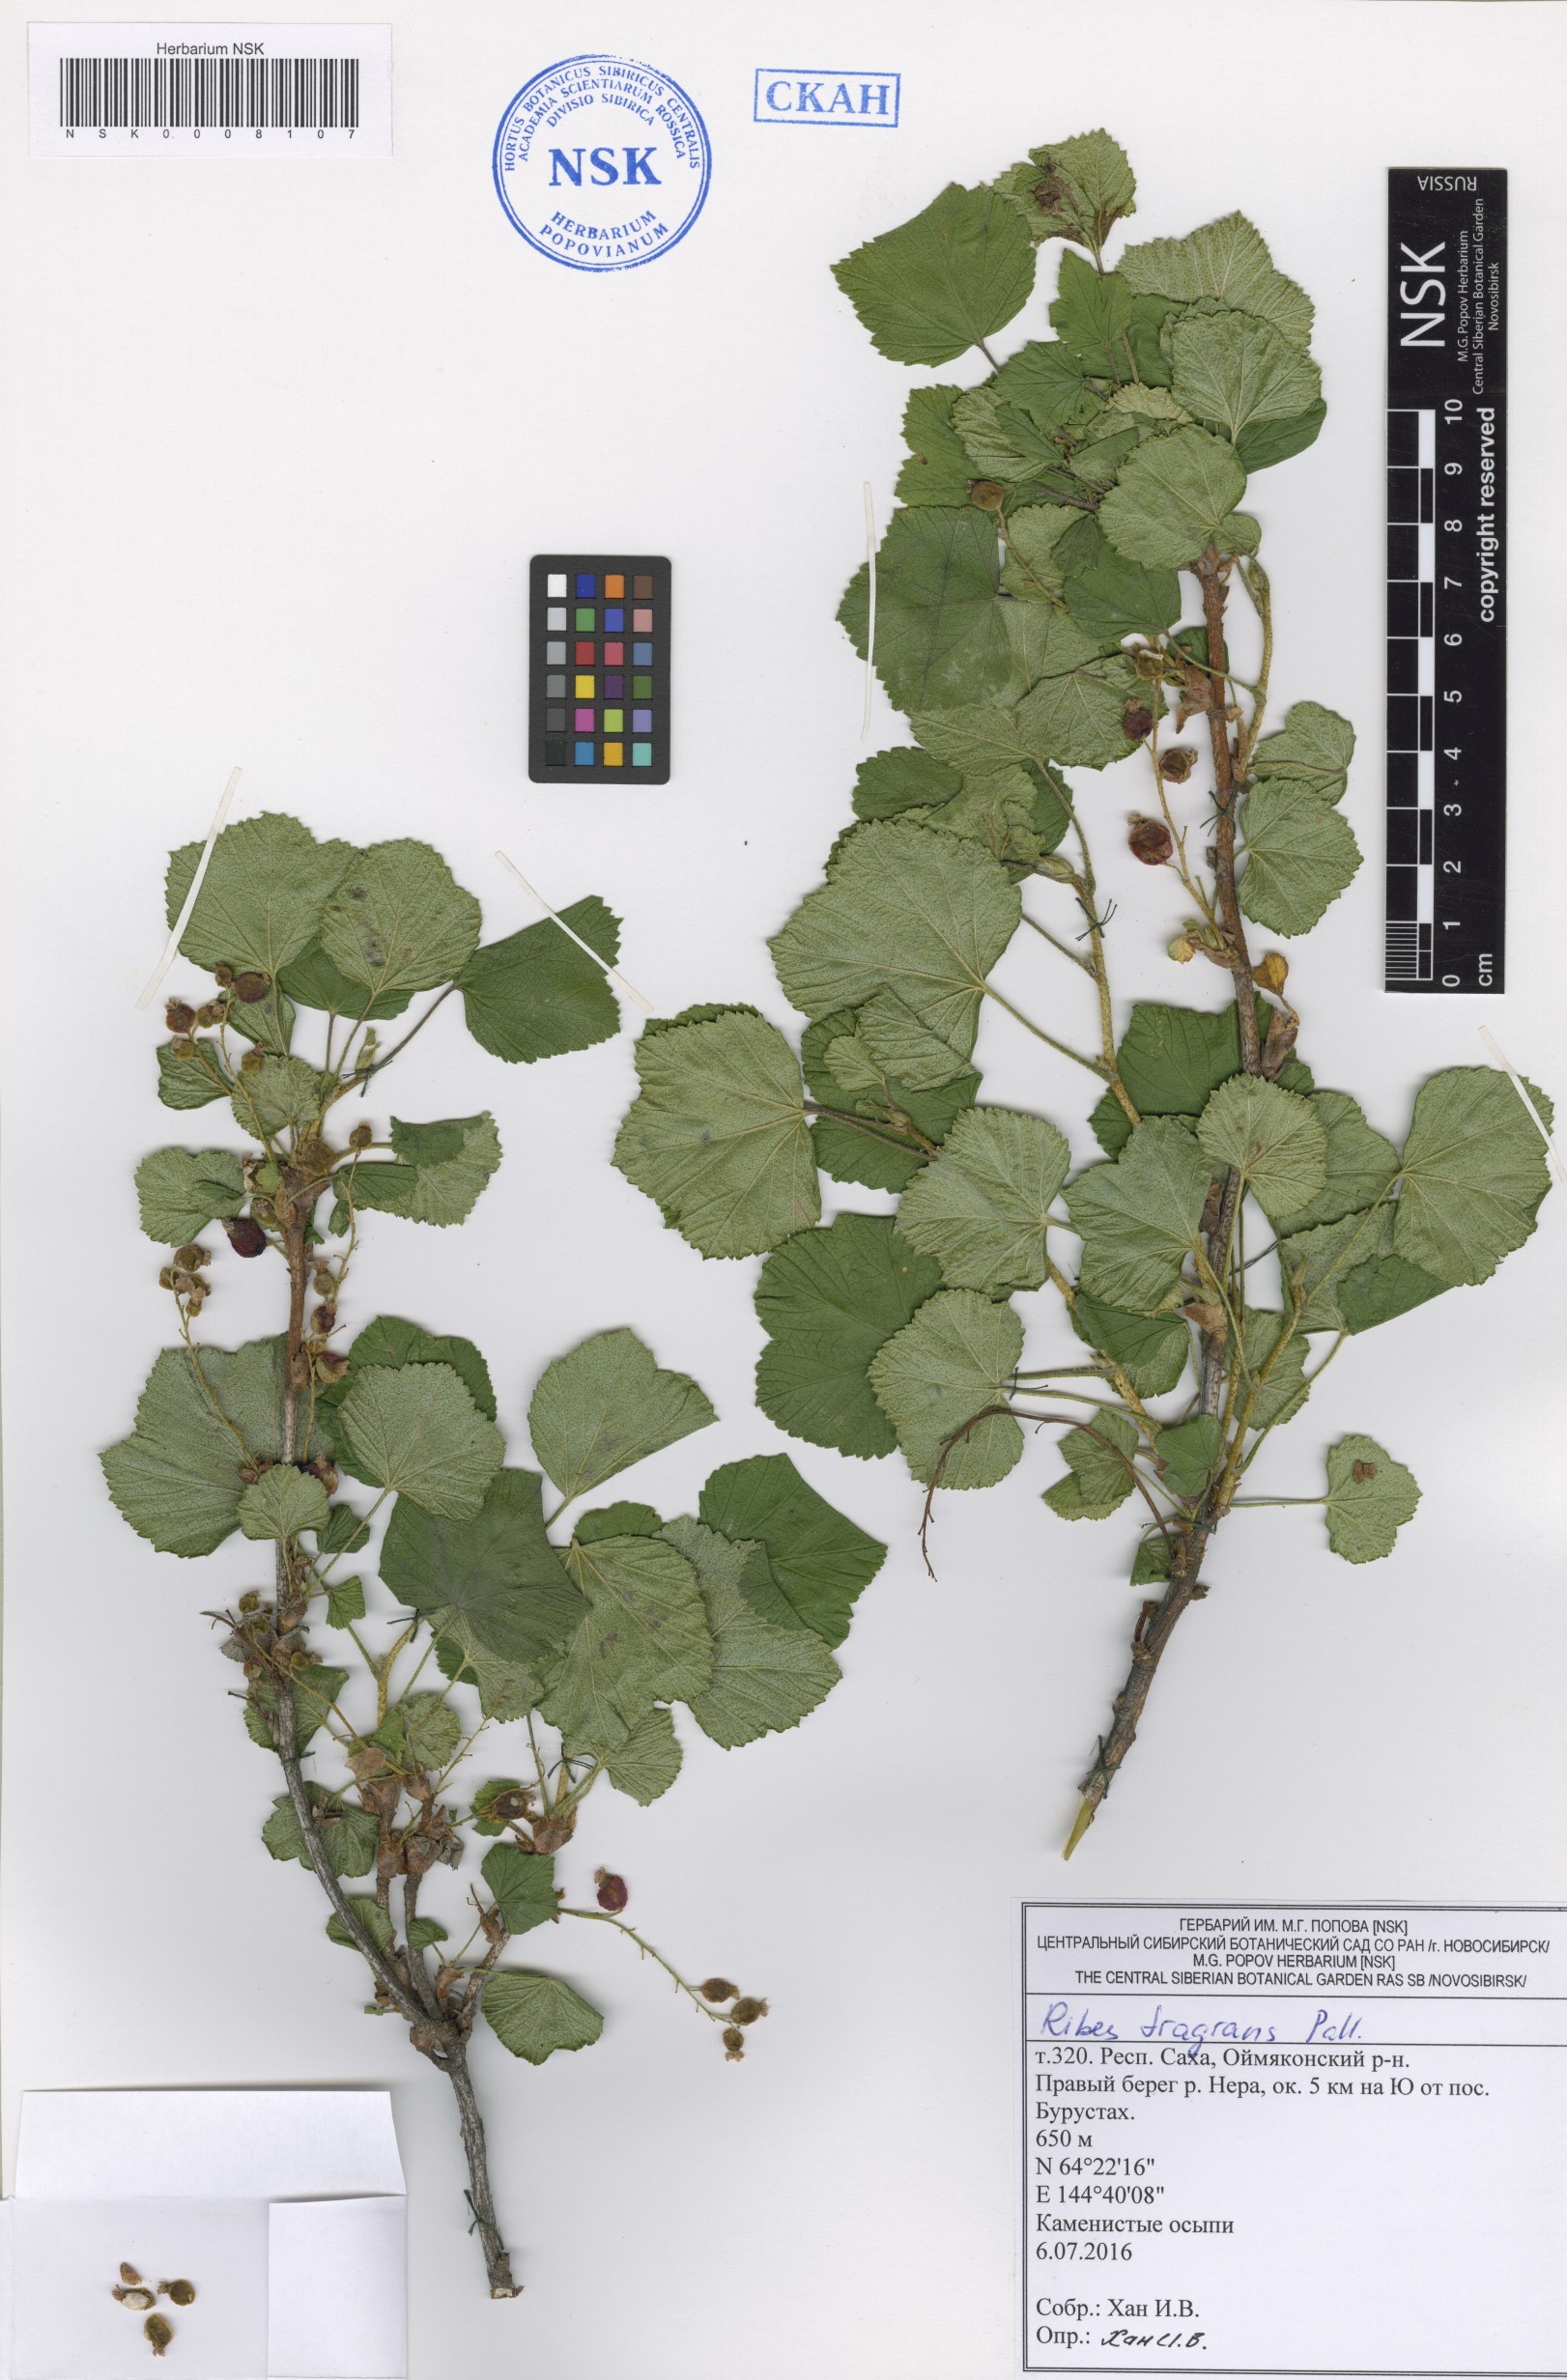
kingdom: Plantae
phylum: Tracheophyta
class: Magnoliopsida
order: Saxifragales
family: Grossulariaceae
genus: Ribes
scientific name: Ribes fragrans
